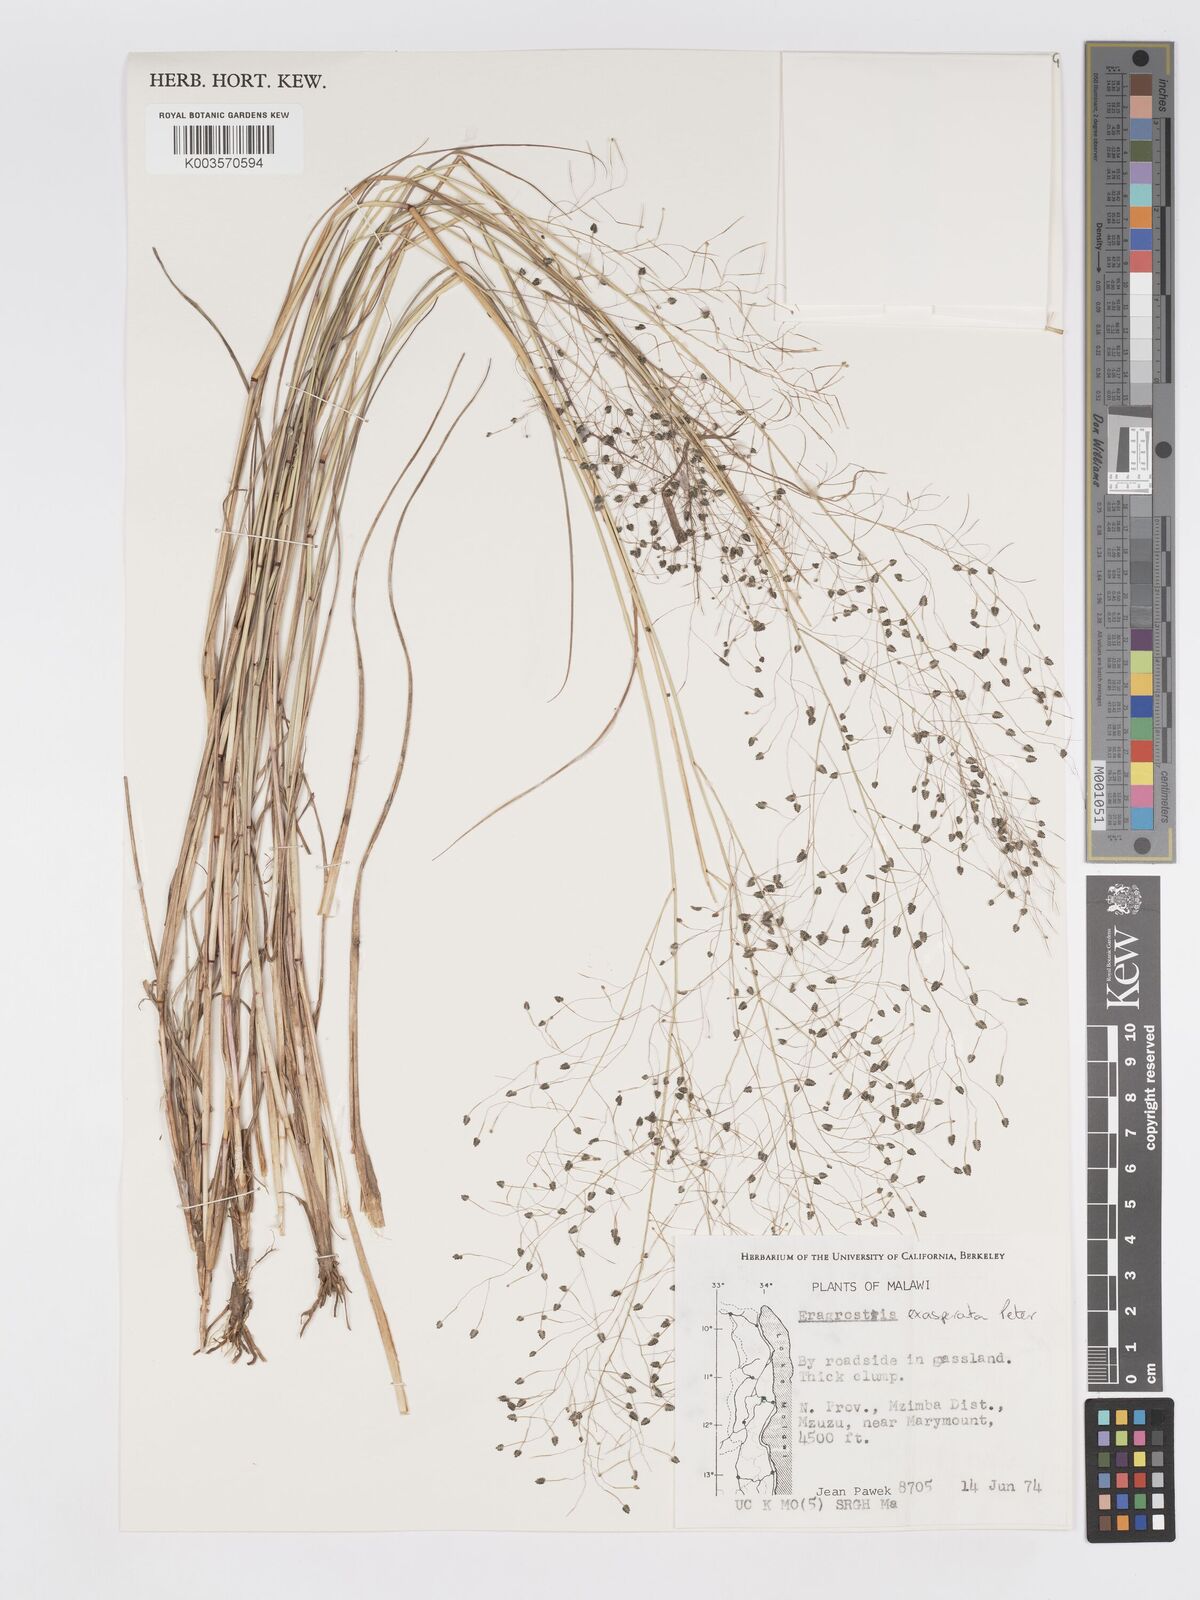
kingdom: Plantae
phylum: Tracheophyta
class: Liliopsida
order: Poales
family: Poaceae
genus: Eragrostis
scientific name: Eragrostis exasperata
